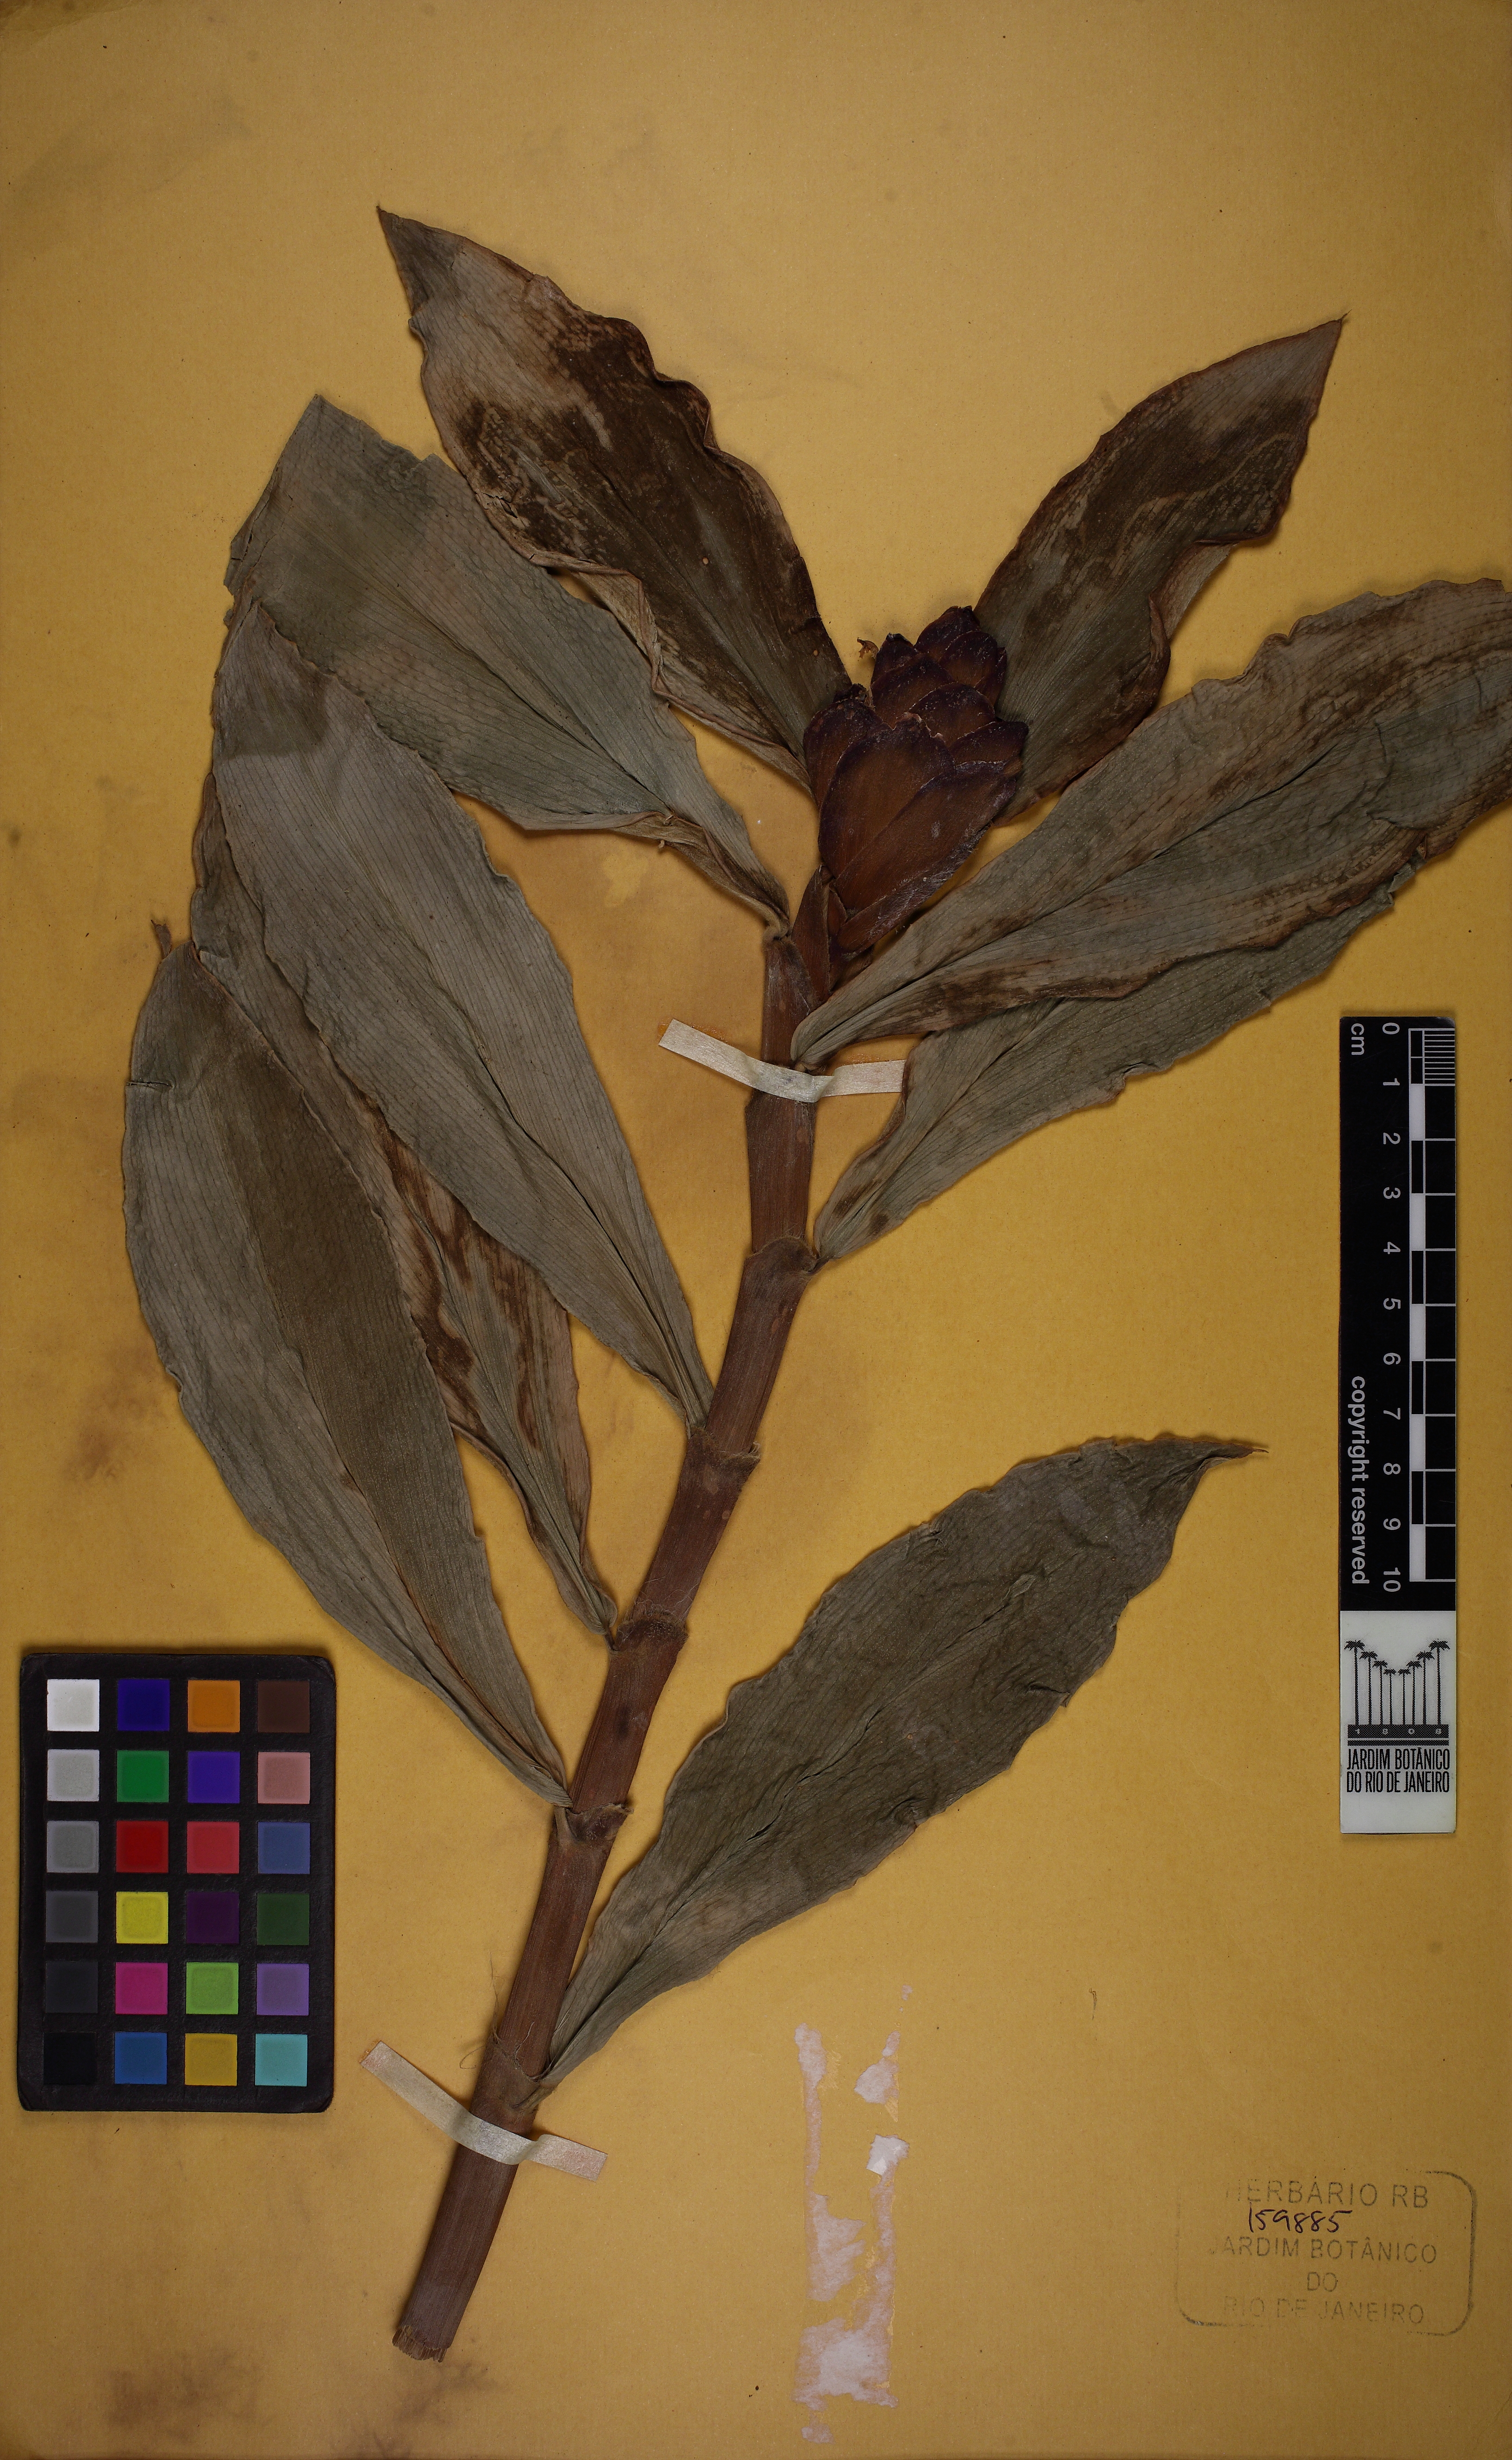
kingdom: Plantae
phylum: Tracheophyta
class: Liliopsida
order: Zingiberales
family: Costaceae
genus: Costus
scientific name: Costus arabicus
